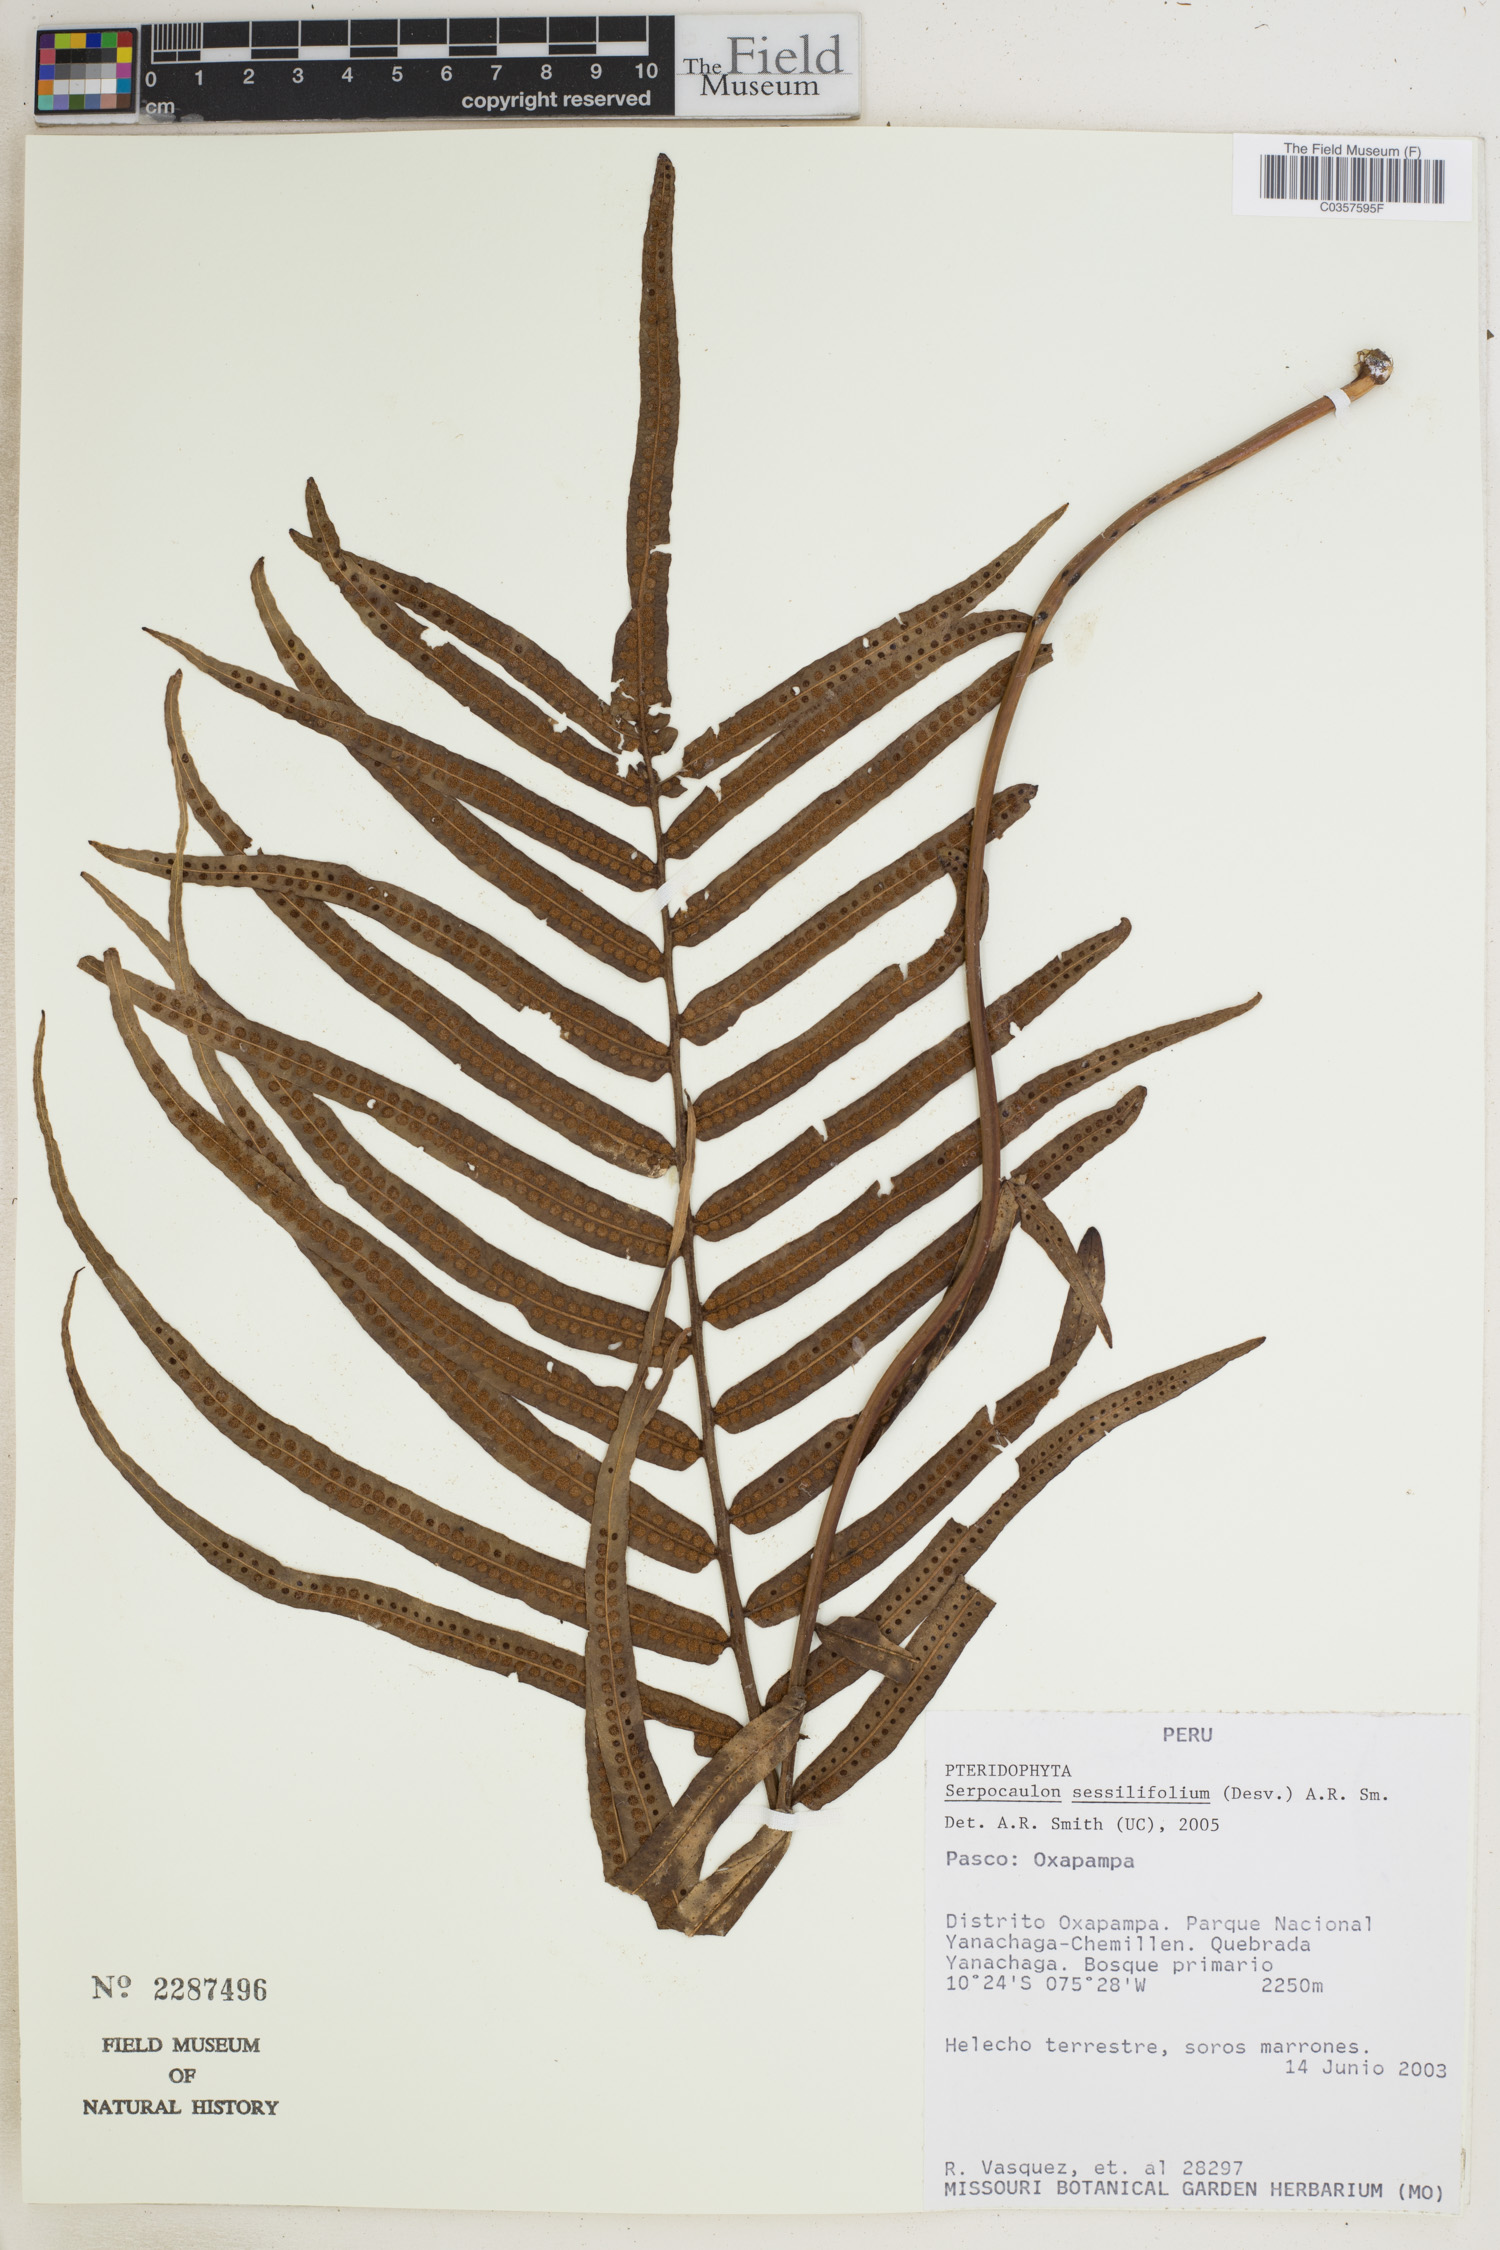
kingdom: Plantae
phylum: Tracheophyta
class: Polypodiopsida
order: Polypodiales
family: Polypodiaceae
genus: Serpocaulon
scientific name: Serpocaulon sessilifolium
